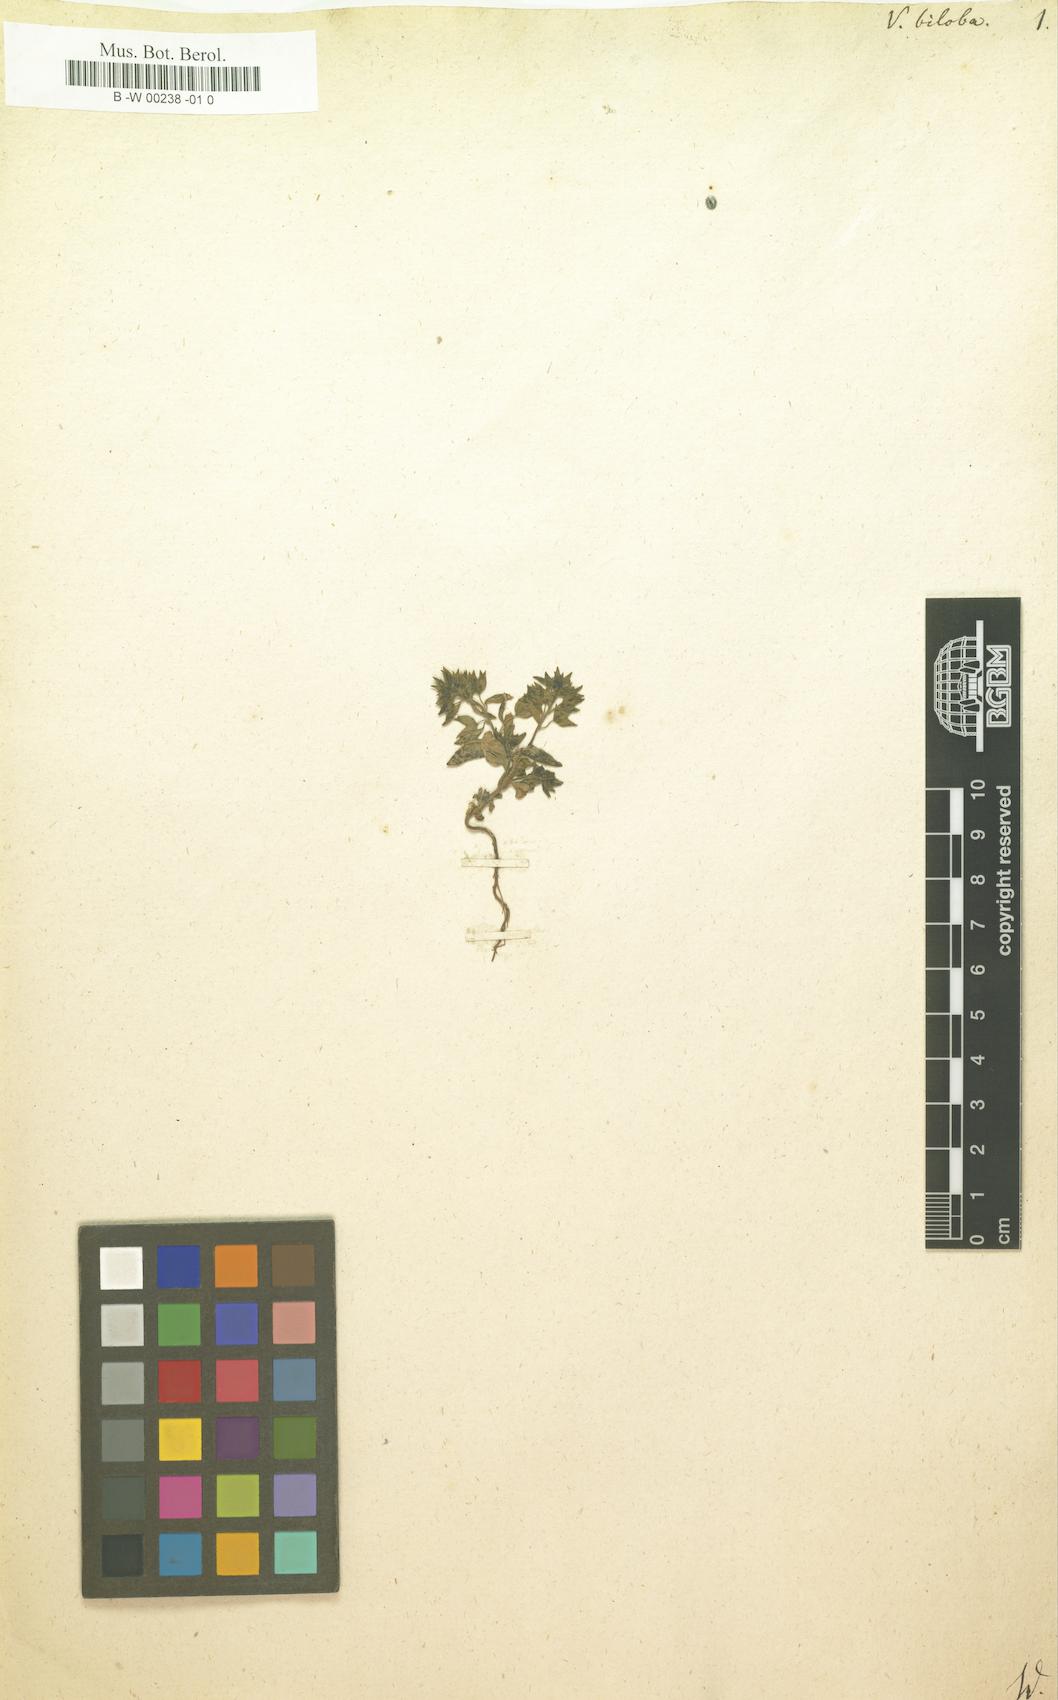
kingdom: Plantae
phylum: Tracheophyta
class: Magnoliopsida
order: Lamiales
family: Plantaginaceae
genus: Veronica
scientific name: Veronica biloba
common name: Twolobe speedwell
